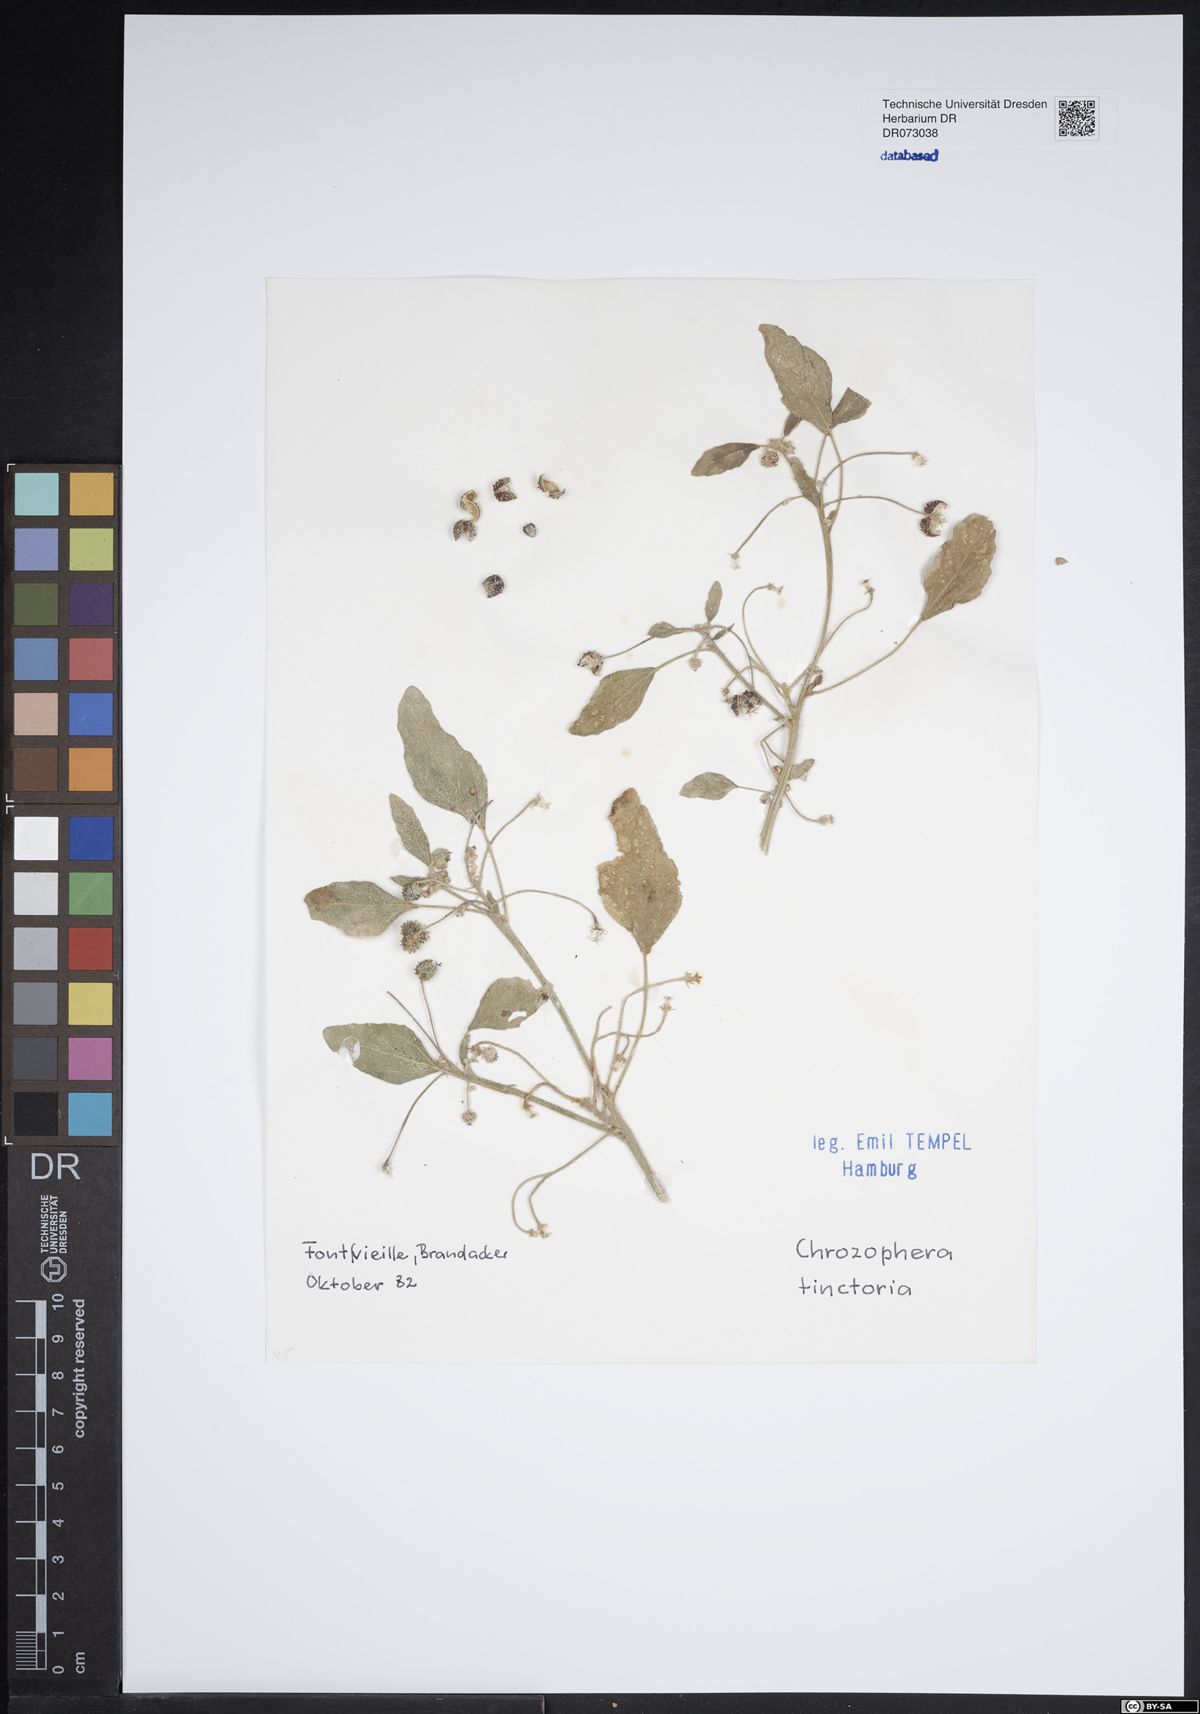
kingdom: Plantae
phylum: Tracheophyta
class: Magnoliopsida
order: Malpighiales
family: Euphorbiaceae
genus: Euphorbia
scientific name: Euphorbia paralias
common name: Sea spurge
